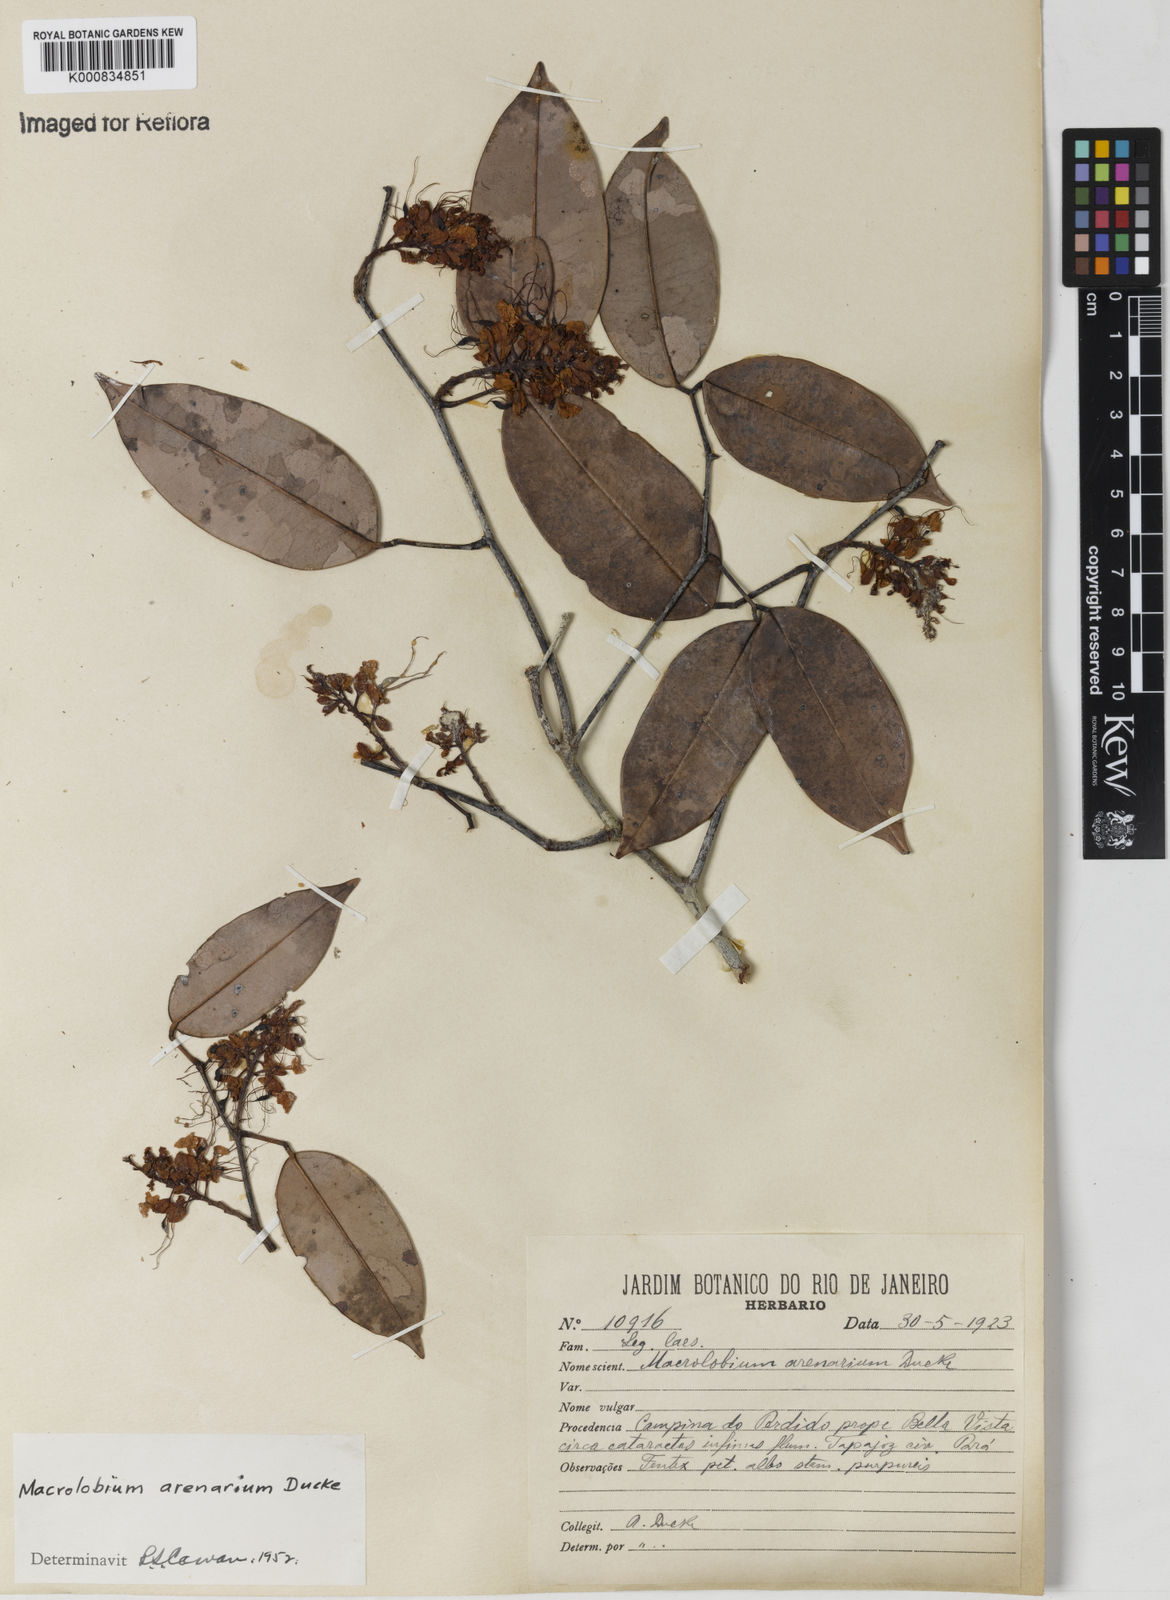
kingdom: Plantae
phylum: Tracheophyta
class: Magnoliopsida
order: Fabales
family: Fabaceae
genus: Macrolobium
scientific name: Macrolobium arenarium
